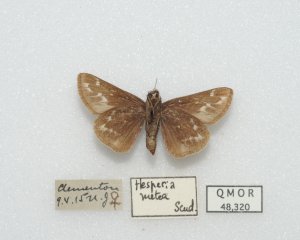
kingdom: Animalia
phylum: Arthropoda
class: Insecta
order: Lepidoptera
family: Hesperiidae
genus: Hesperia
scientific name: Hesperia metea
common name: Cobweb Skipper
